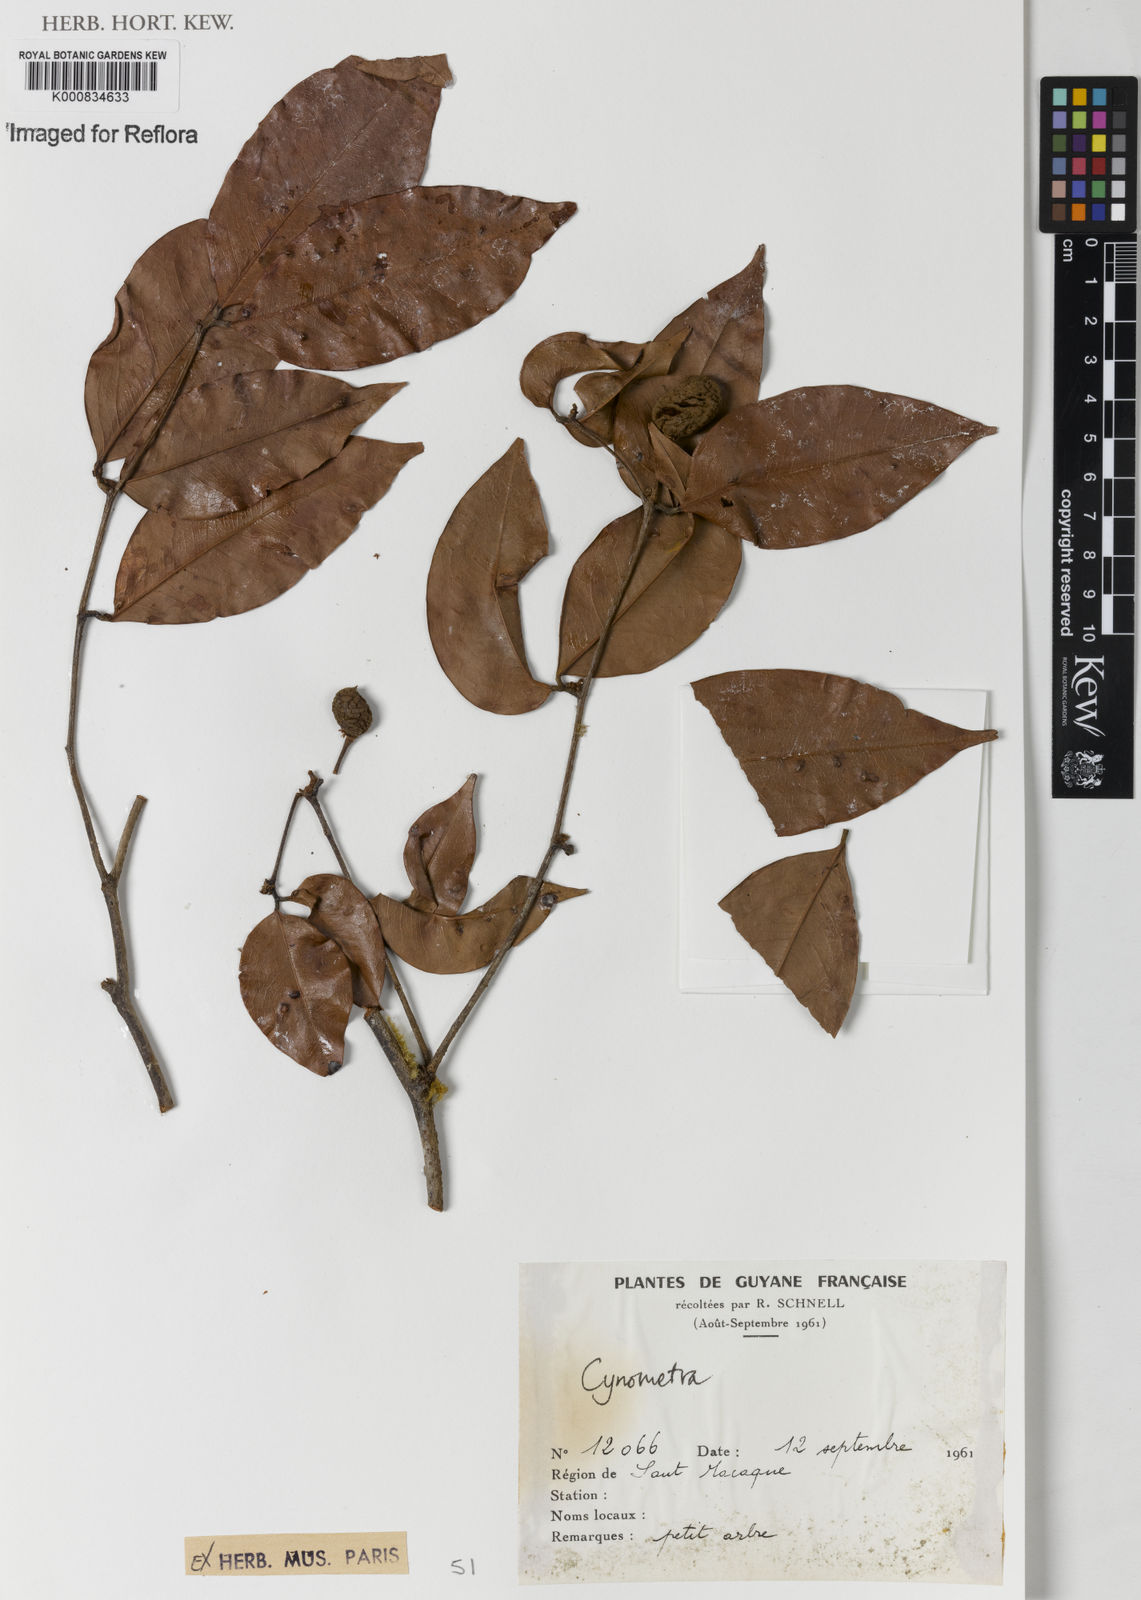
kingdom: Plantae
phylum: Tracheophyta
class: Magnoliopsida
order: Fabales
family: Fabaceae
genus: Cynometra
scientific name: Cynometra hostmanniana
